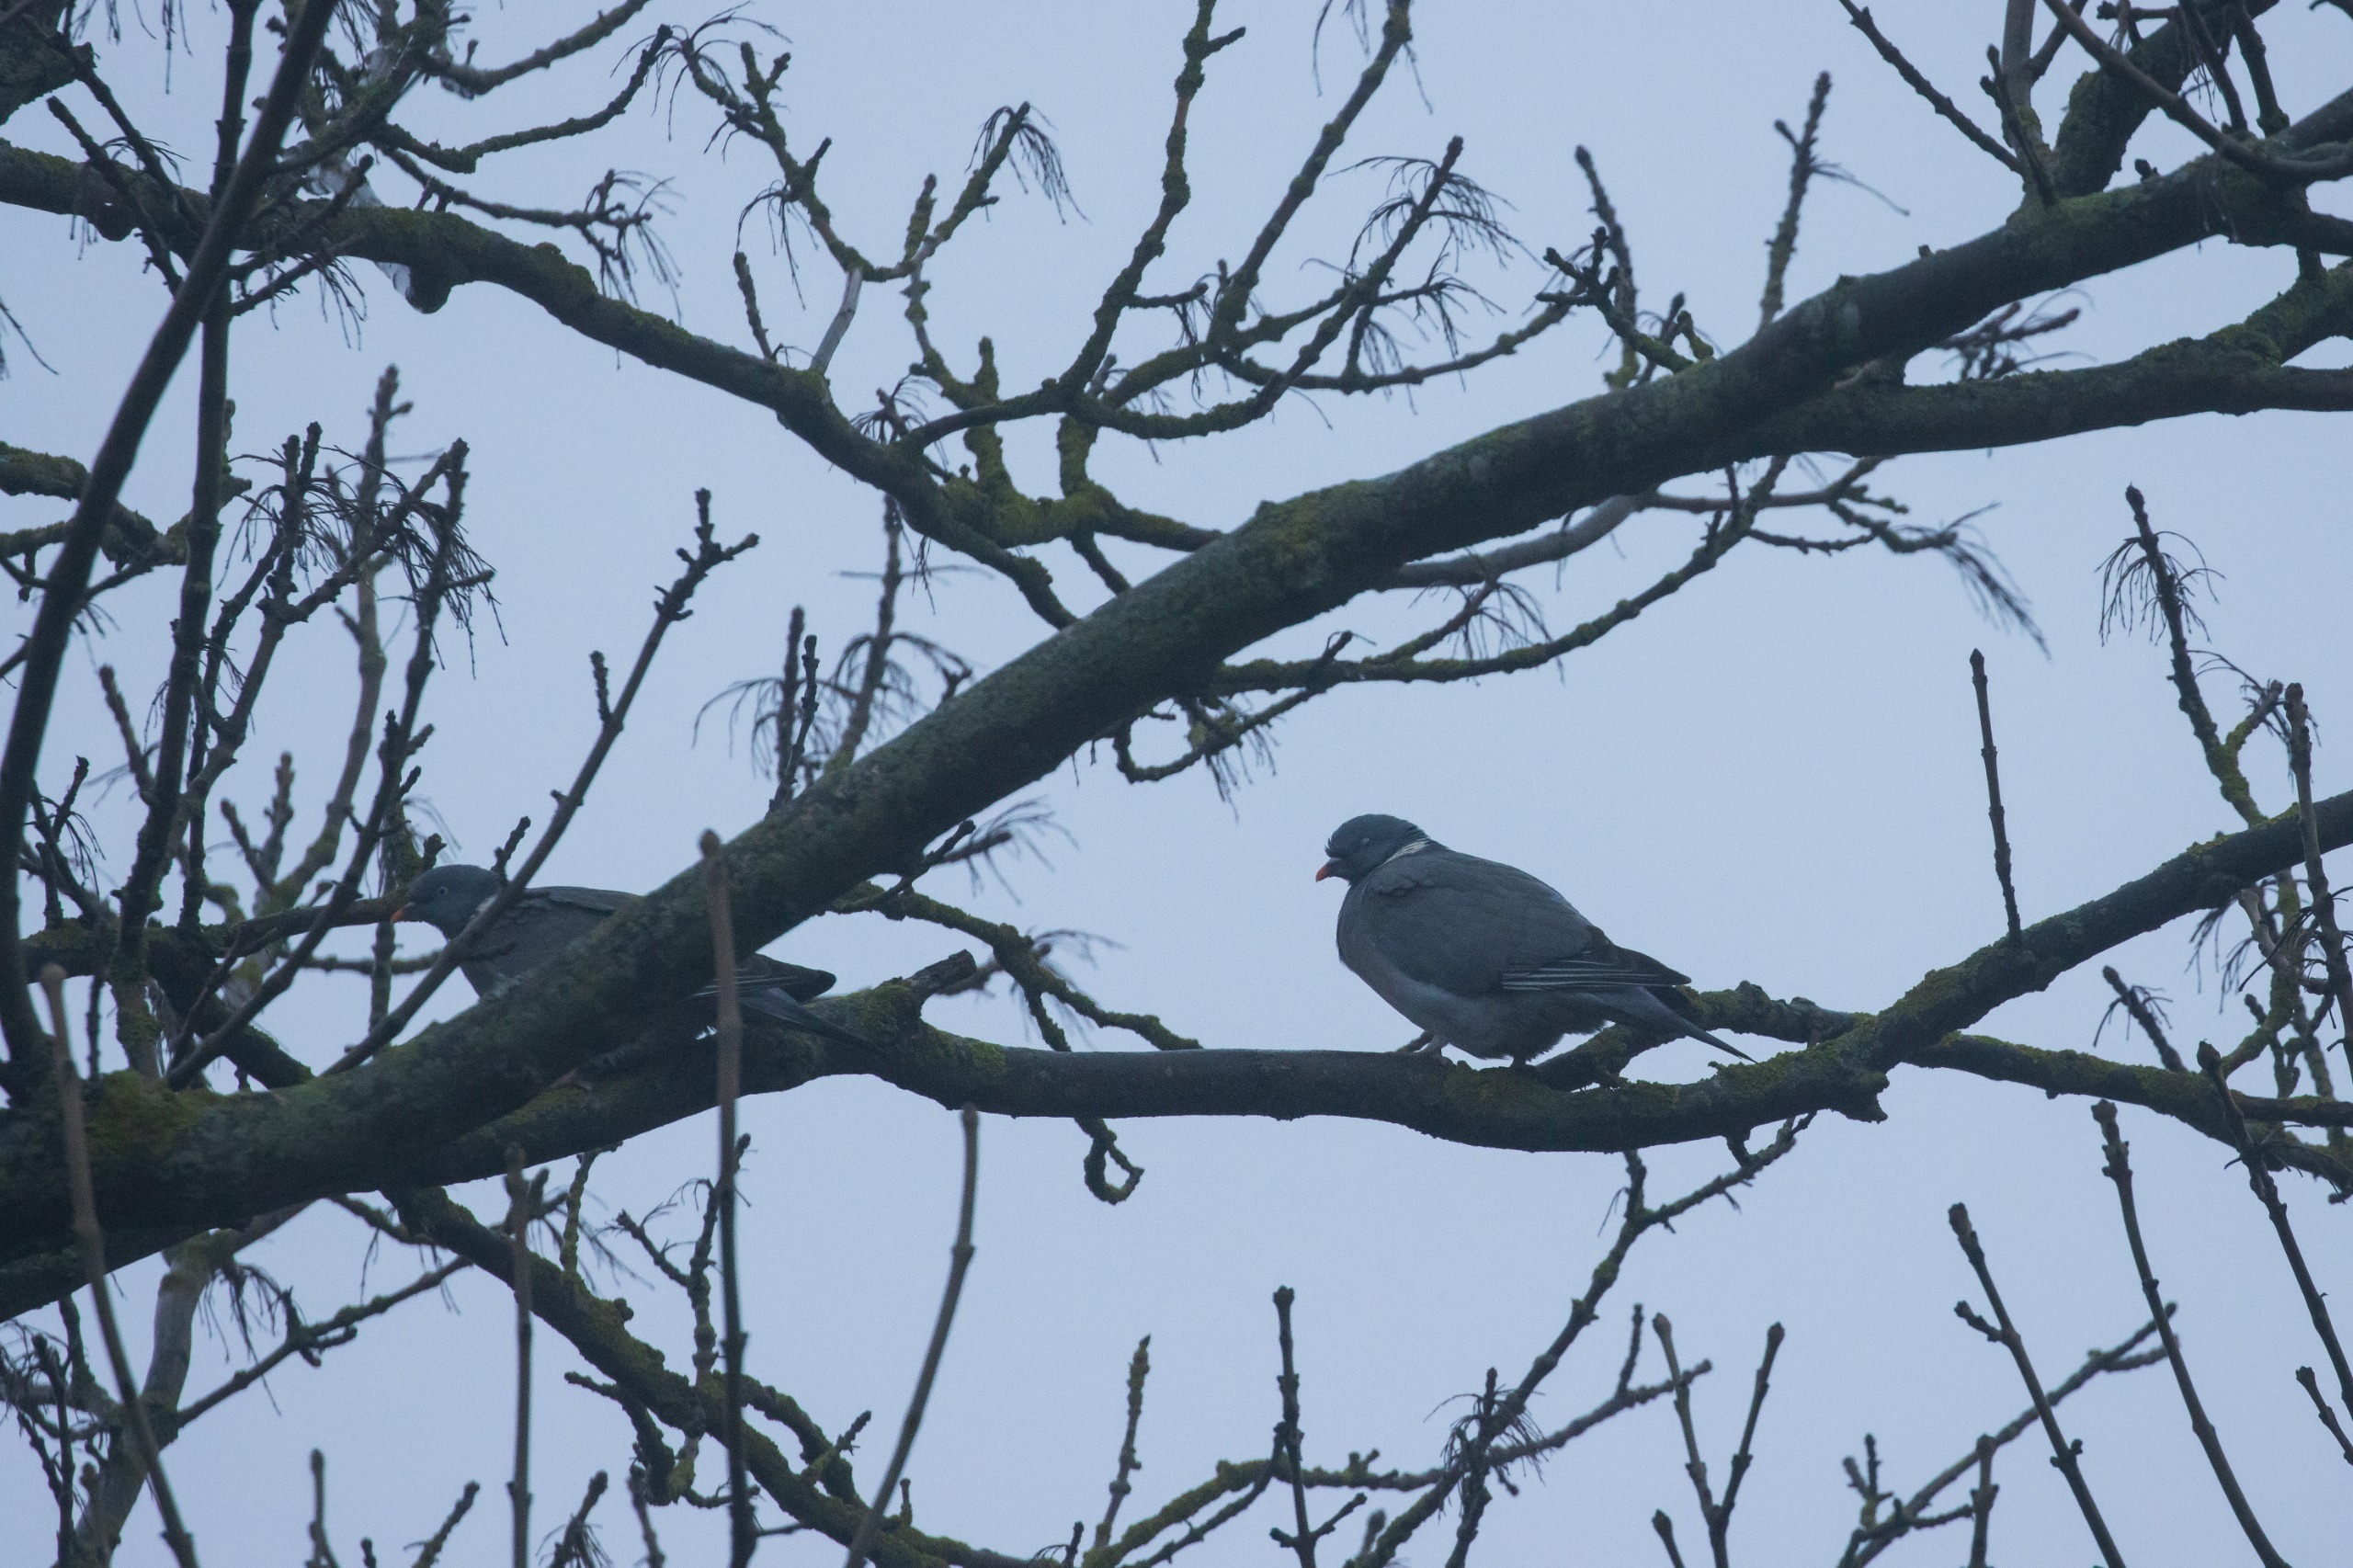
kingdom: Animalia
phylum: Chordata
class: Aves
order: Columbiformes
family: Columbidae
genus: Columba
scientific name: Columba palumbus
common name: Ringdue
